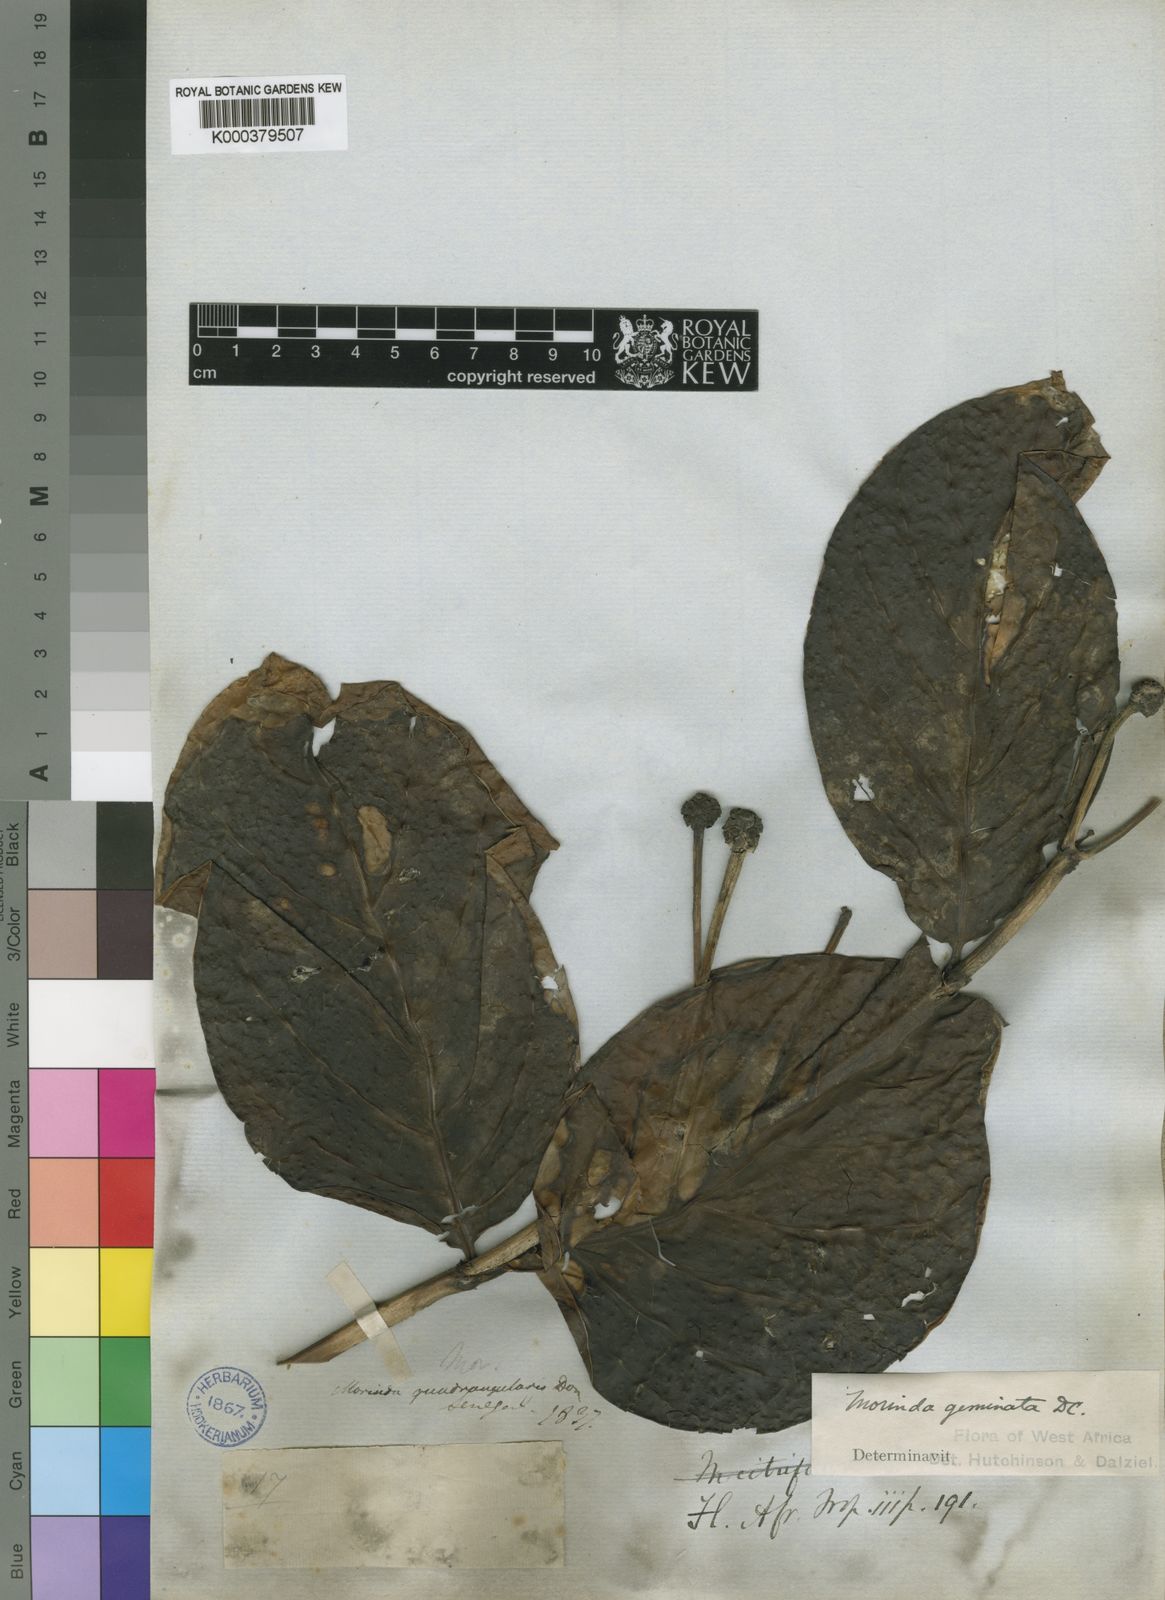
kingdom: Plantae
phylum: Tracheophyta
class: Magnoliopsida
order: Gentianales
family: Rubiaceae
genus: Morinda
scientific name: Morinda chrysorhiza
